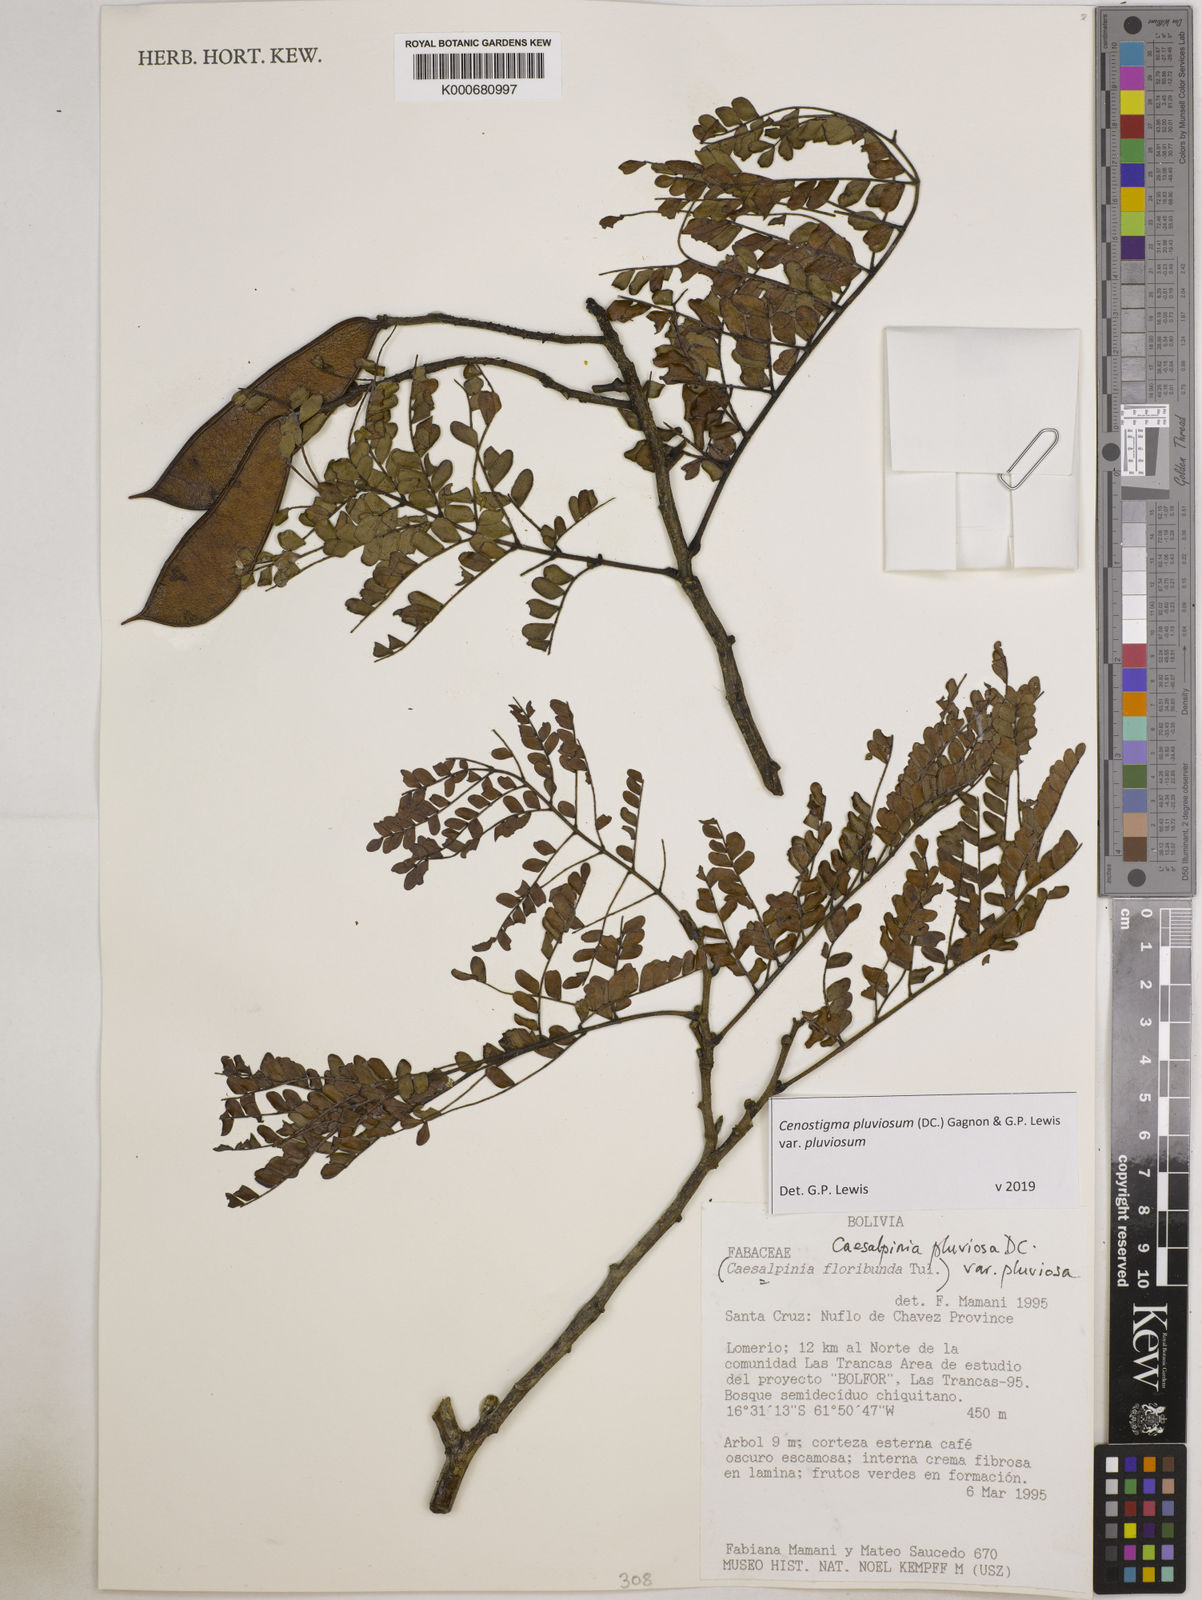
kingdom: Plantae
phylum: Tracheophyta
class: Magnoliopsida
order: Fabales
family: Fabaceae
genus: Cenostigma
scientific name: Cenostigma pluviosum
